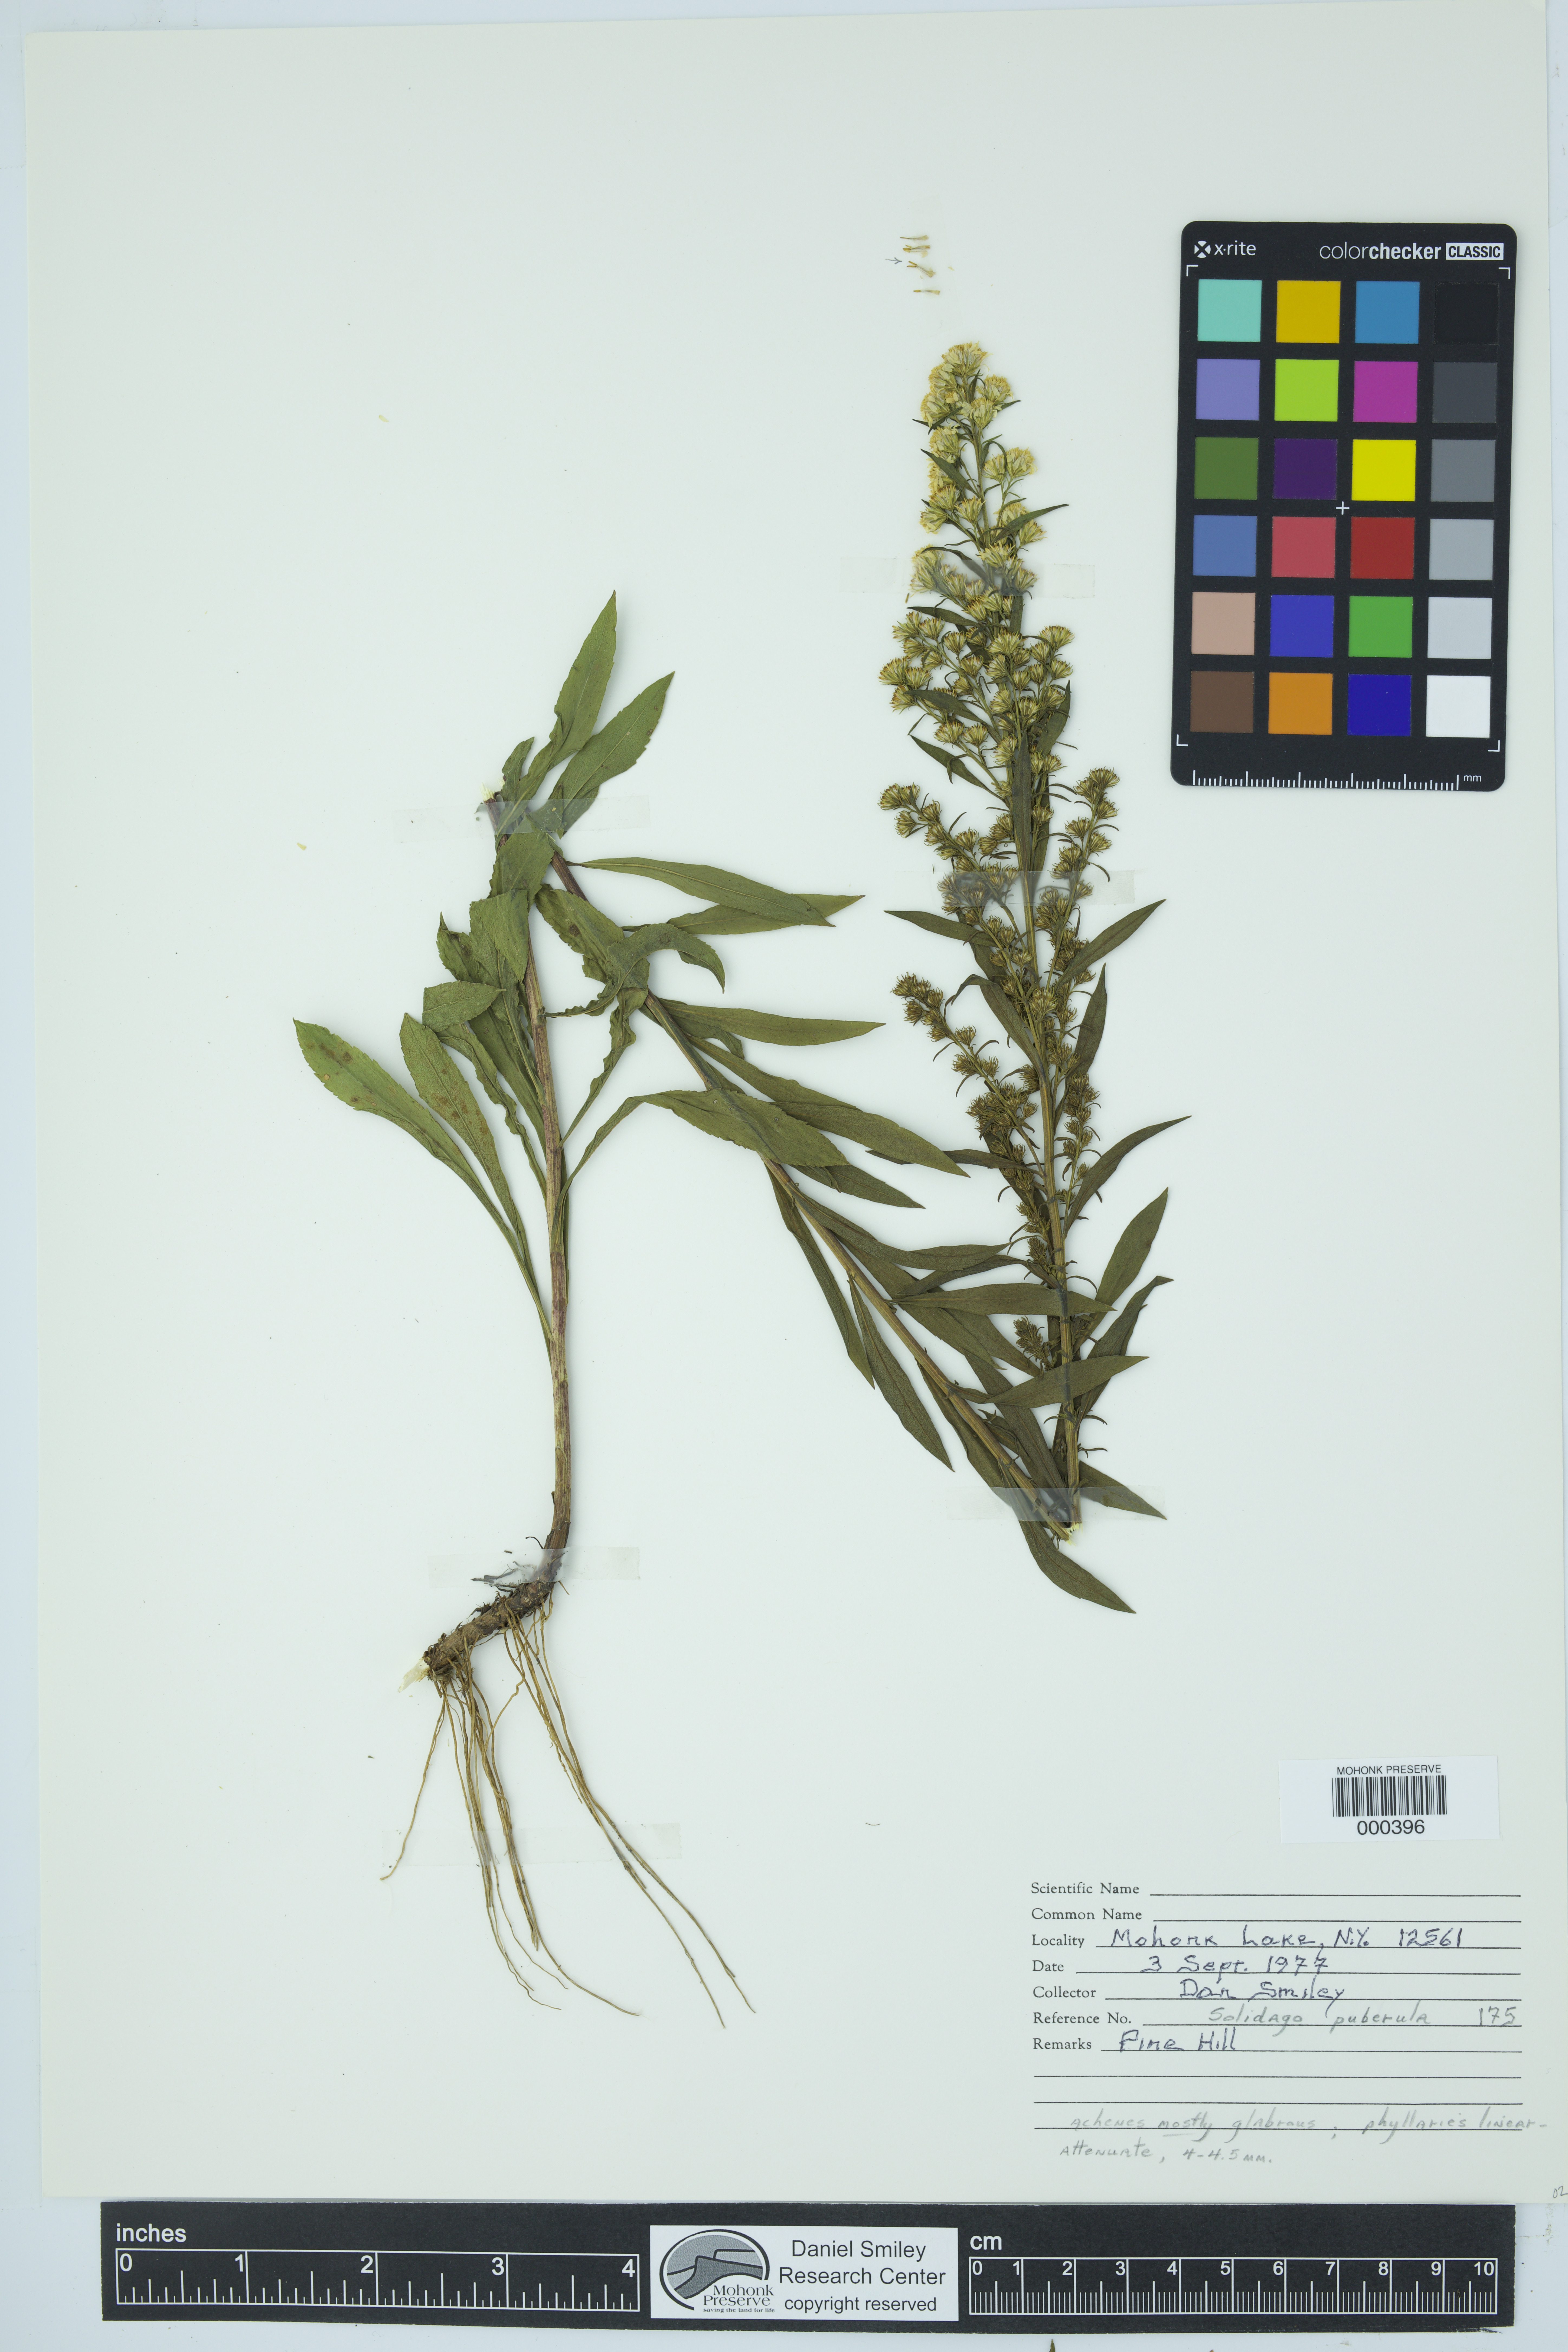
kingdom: Plantae
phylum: Tracheophyta
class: Magnoliopsida
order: Asterales
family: Asteraceae
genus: Solidago
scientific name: Solidago puberula
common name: Downy goldenrod
